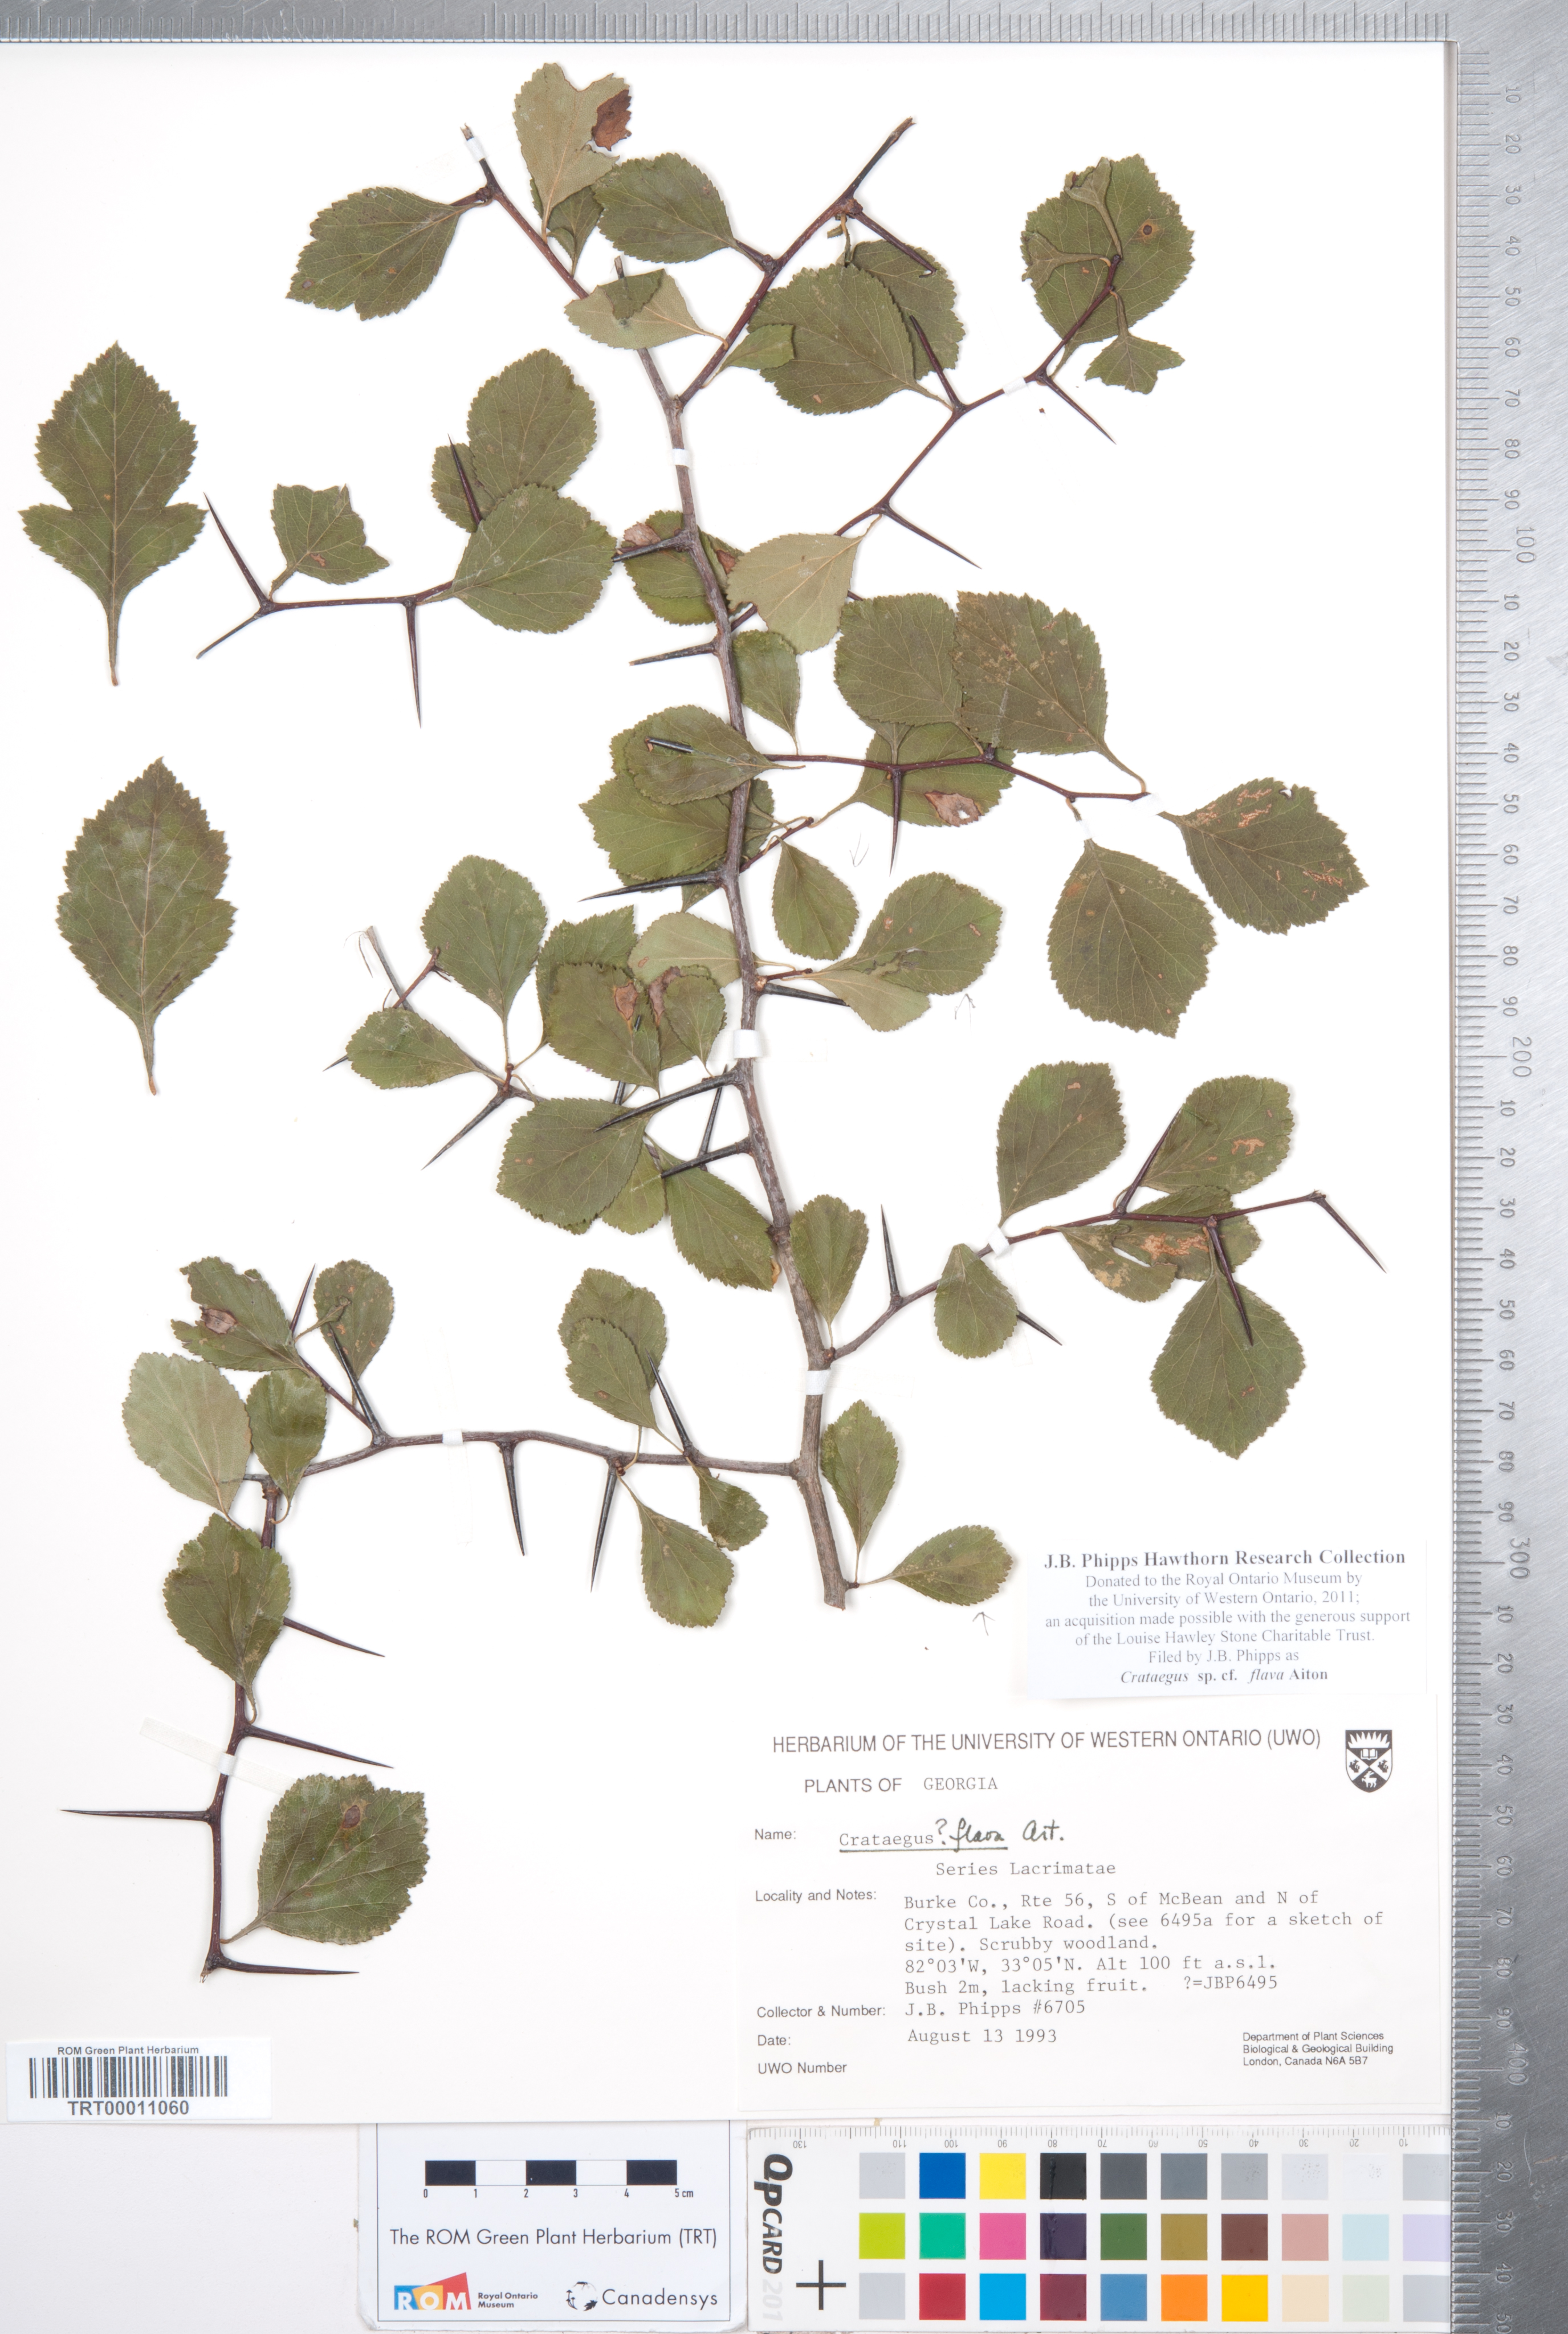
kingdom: Plantae
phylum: Tracheophyta
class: Magnoliopsida
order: Rosales
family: Rosaceae
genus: Crataegus
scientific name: Crataegus flava
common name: Yellow hawthorn
